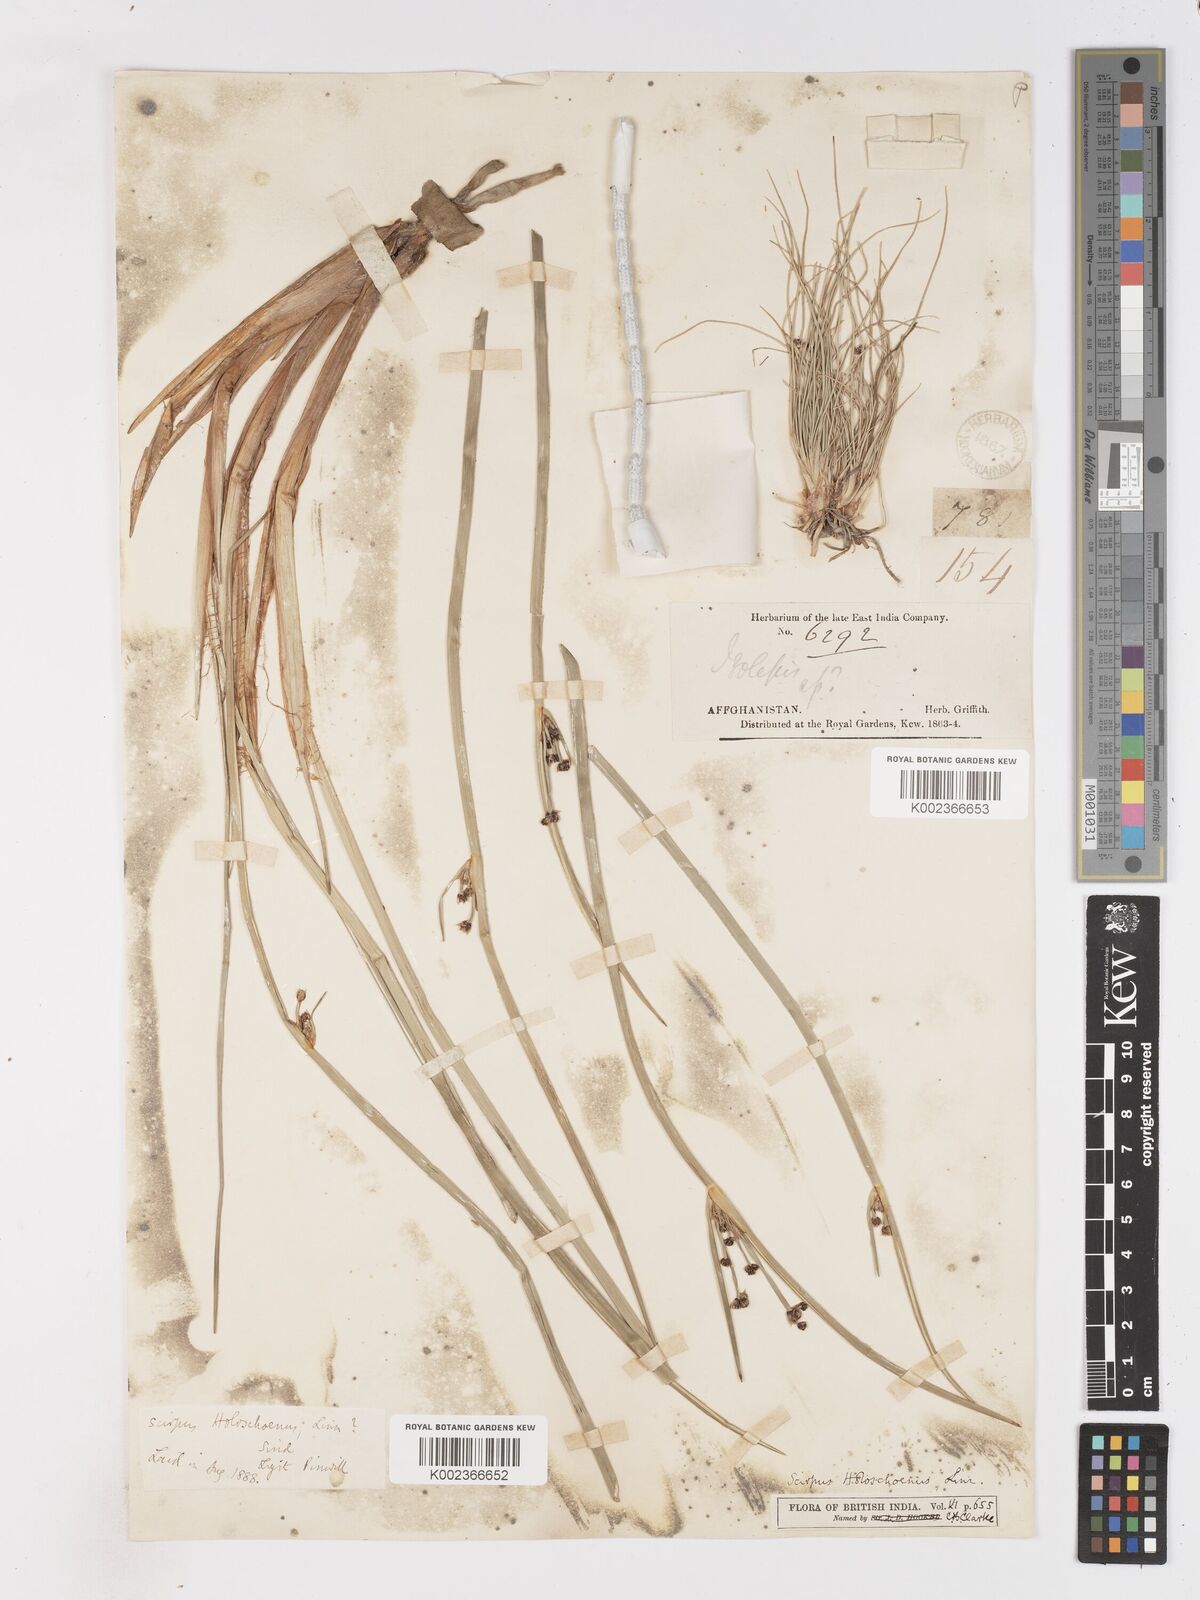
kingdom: Plantae
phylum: Tracheophyta
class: Liliopsida
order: Poales
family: Cyperaceae
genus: Scirpoides
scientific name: Scirpoides holoschoenus
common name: Round-headed club-rush
